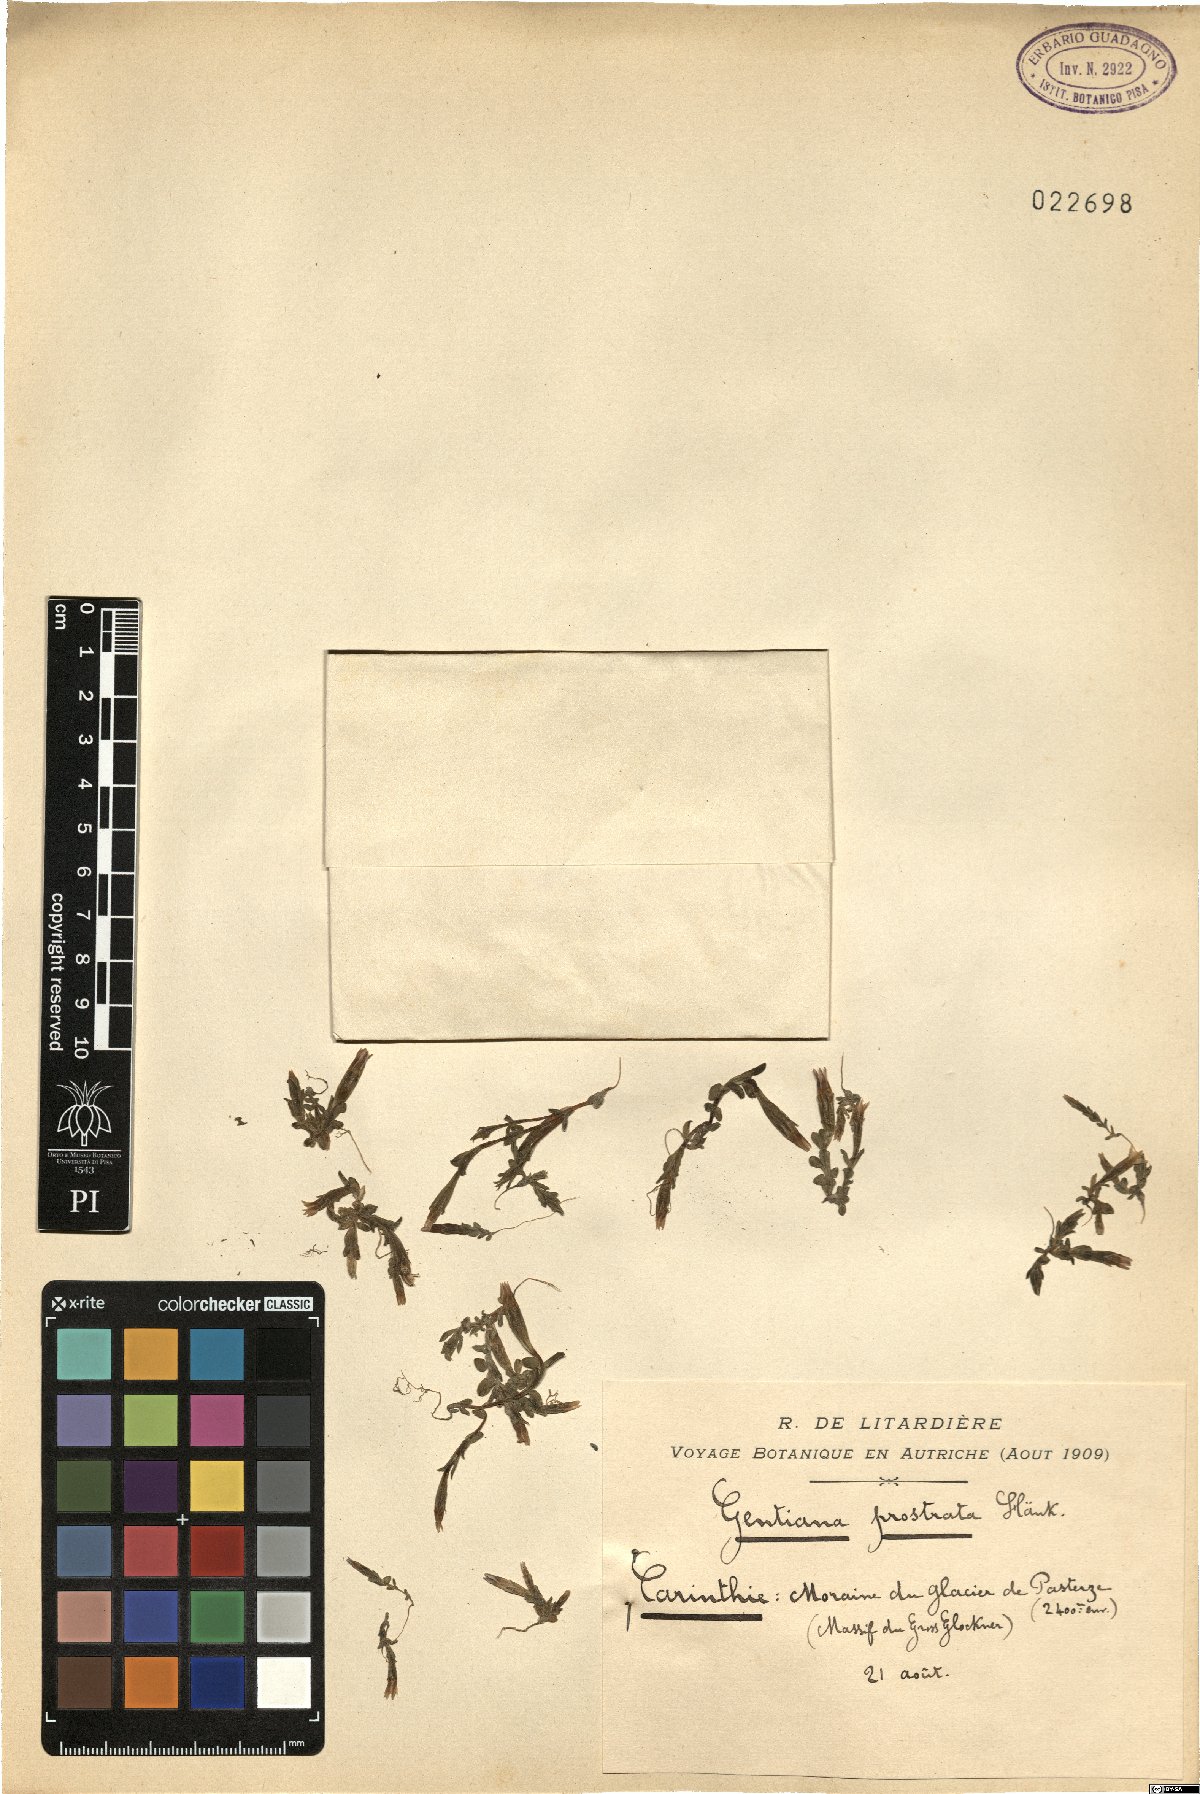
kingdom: Plantae
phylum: Tracheophyta
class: Magnoliopsida
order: Gentianales
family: Gentianaceae
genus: Gentiana
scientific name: Gentiana prostrata
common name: Moss gentian
